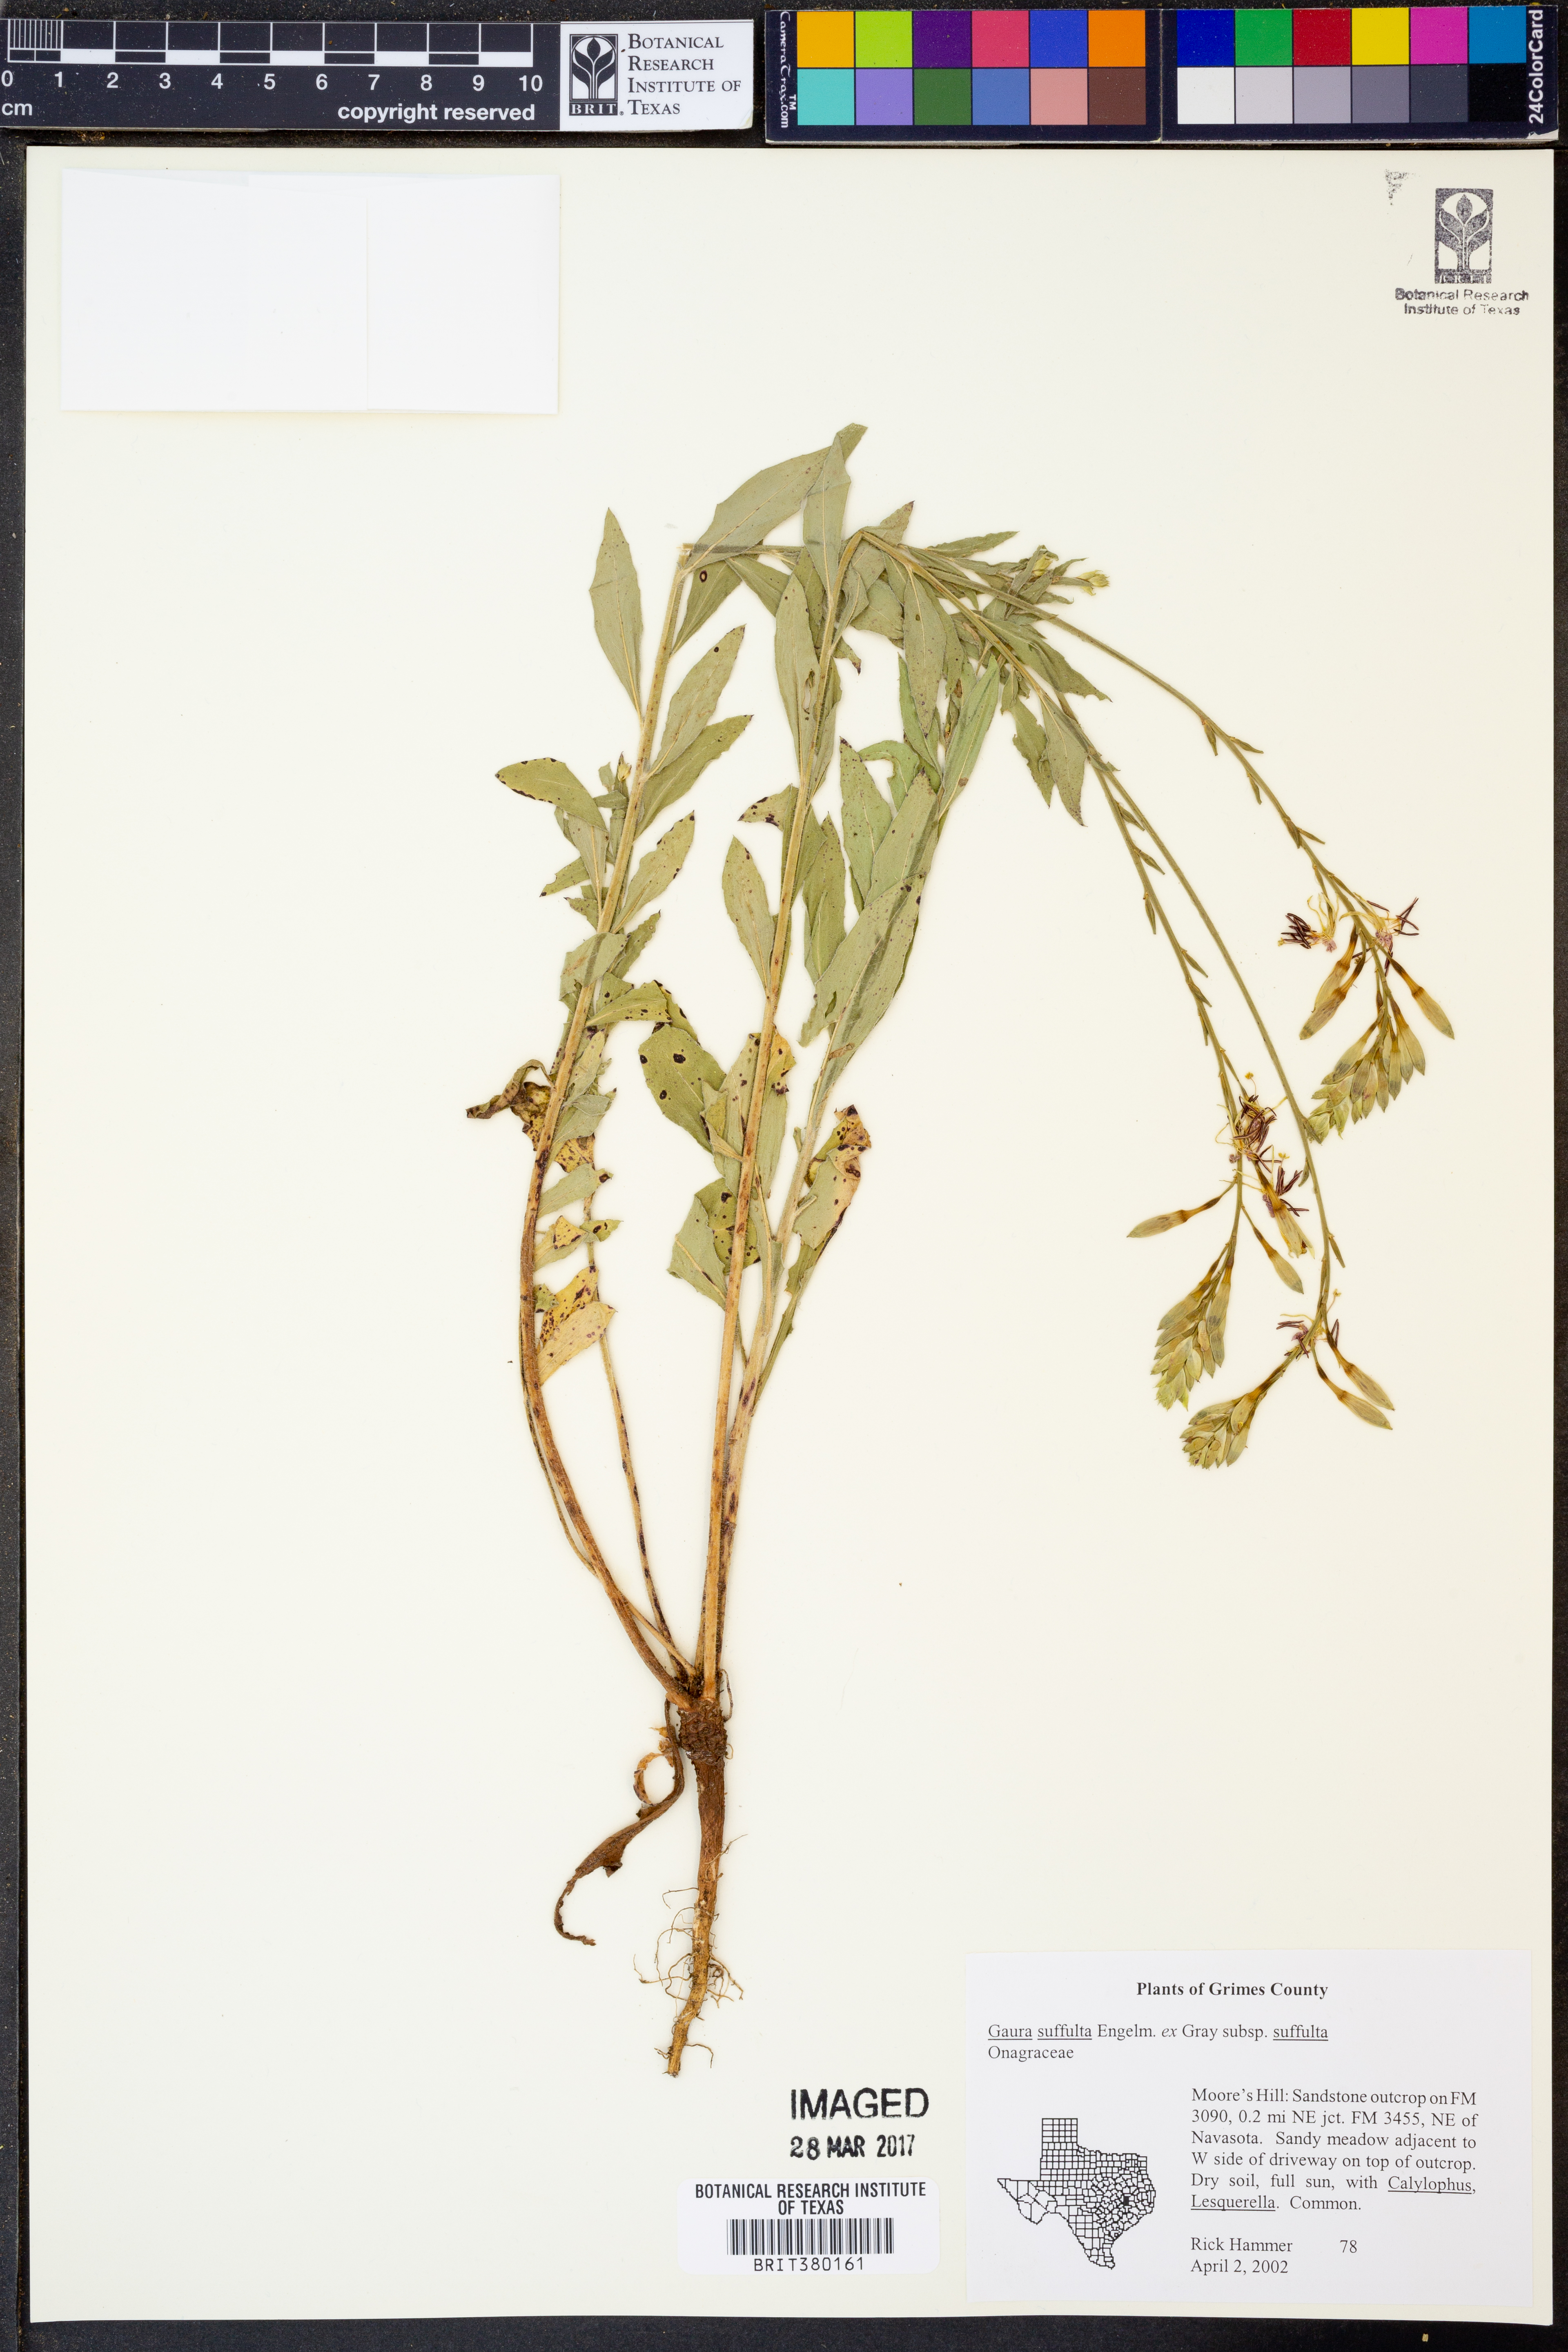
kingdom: Plantae
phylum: Tracheophyta
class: Magnoliopsida
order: Myrtales
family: Onagraceae
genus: Oenothera
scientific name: Oenothera suffulta
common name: Kisses
